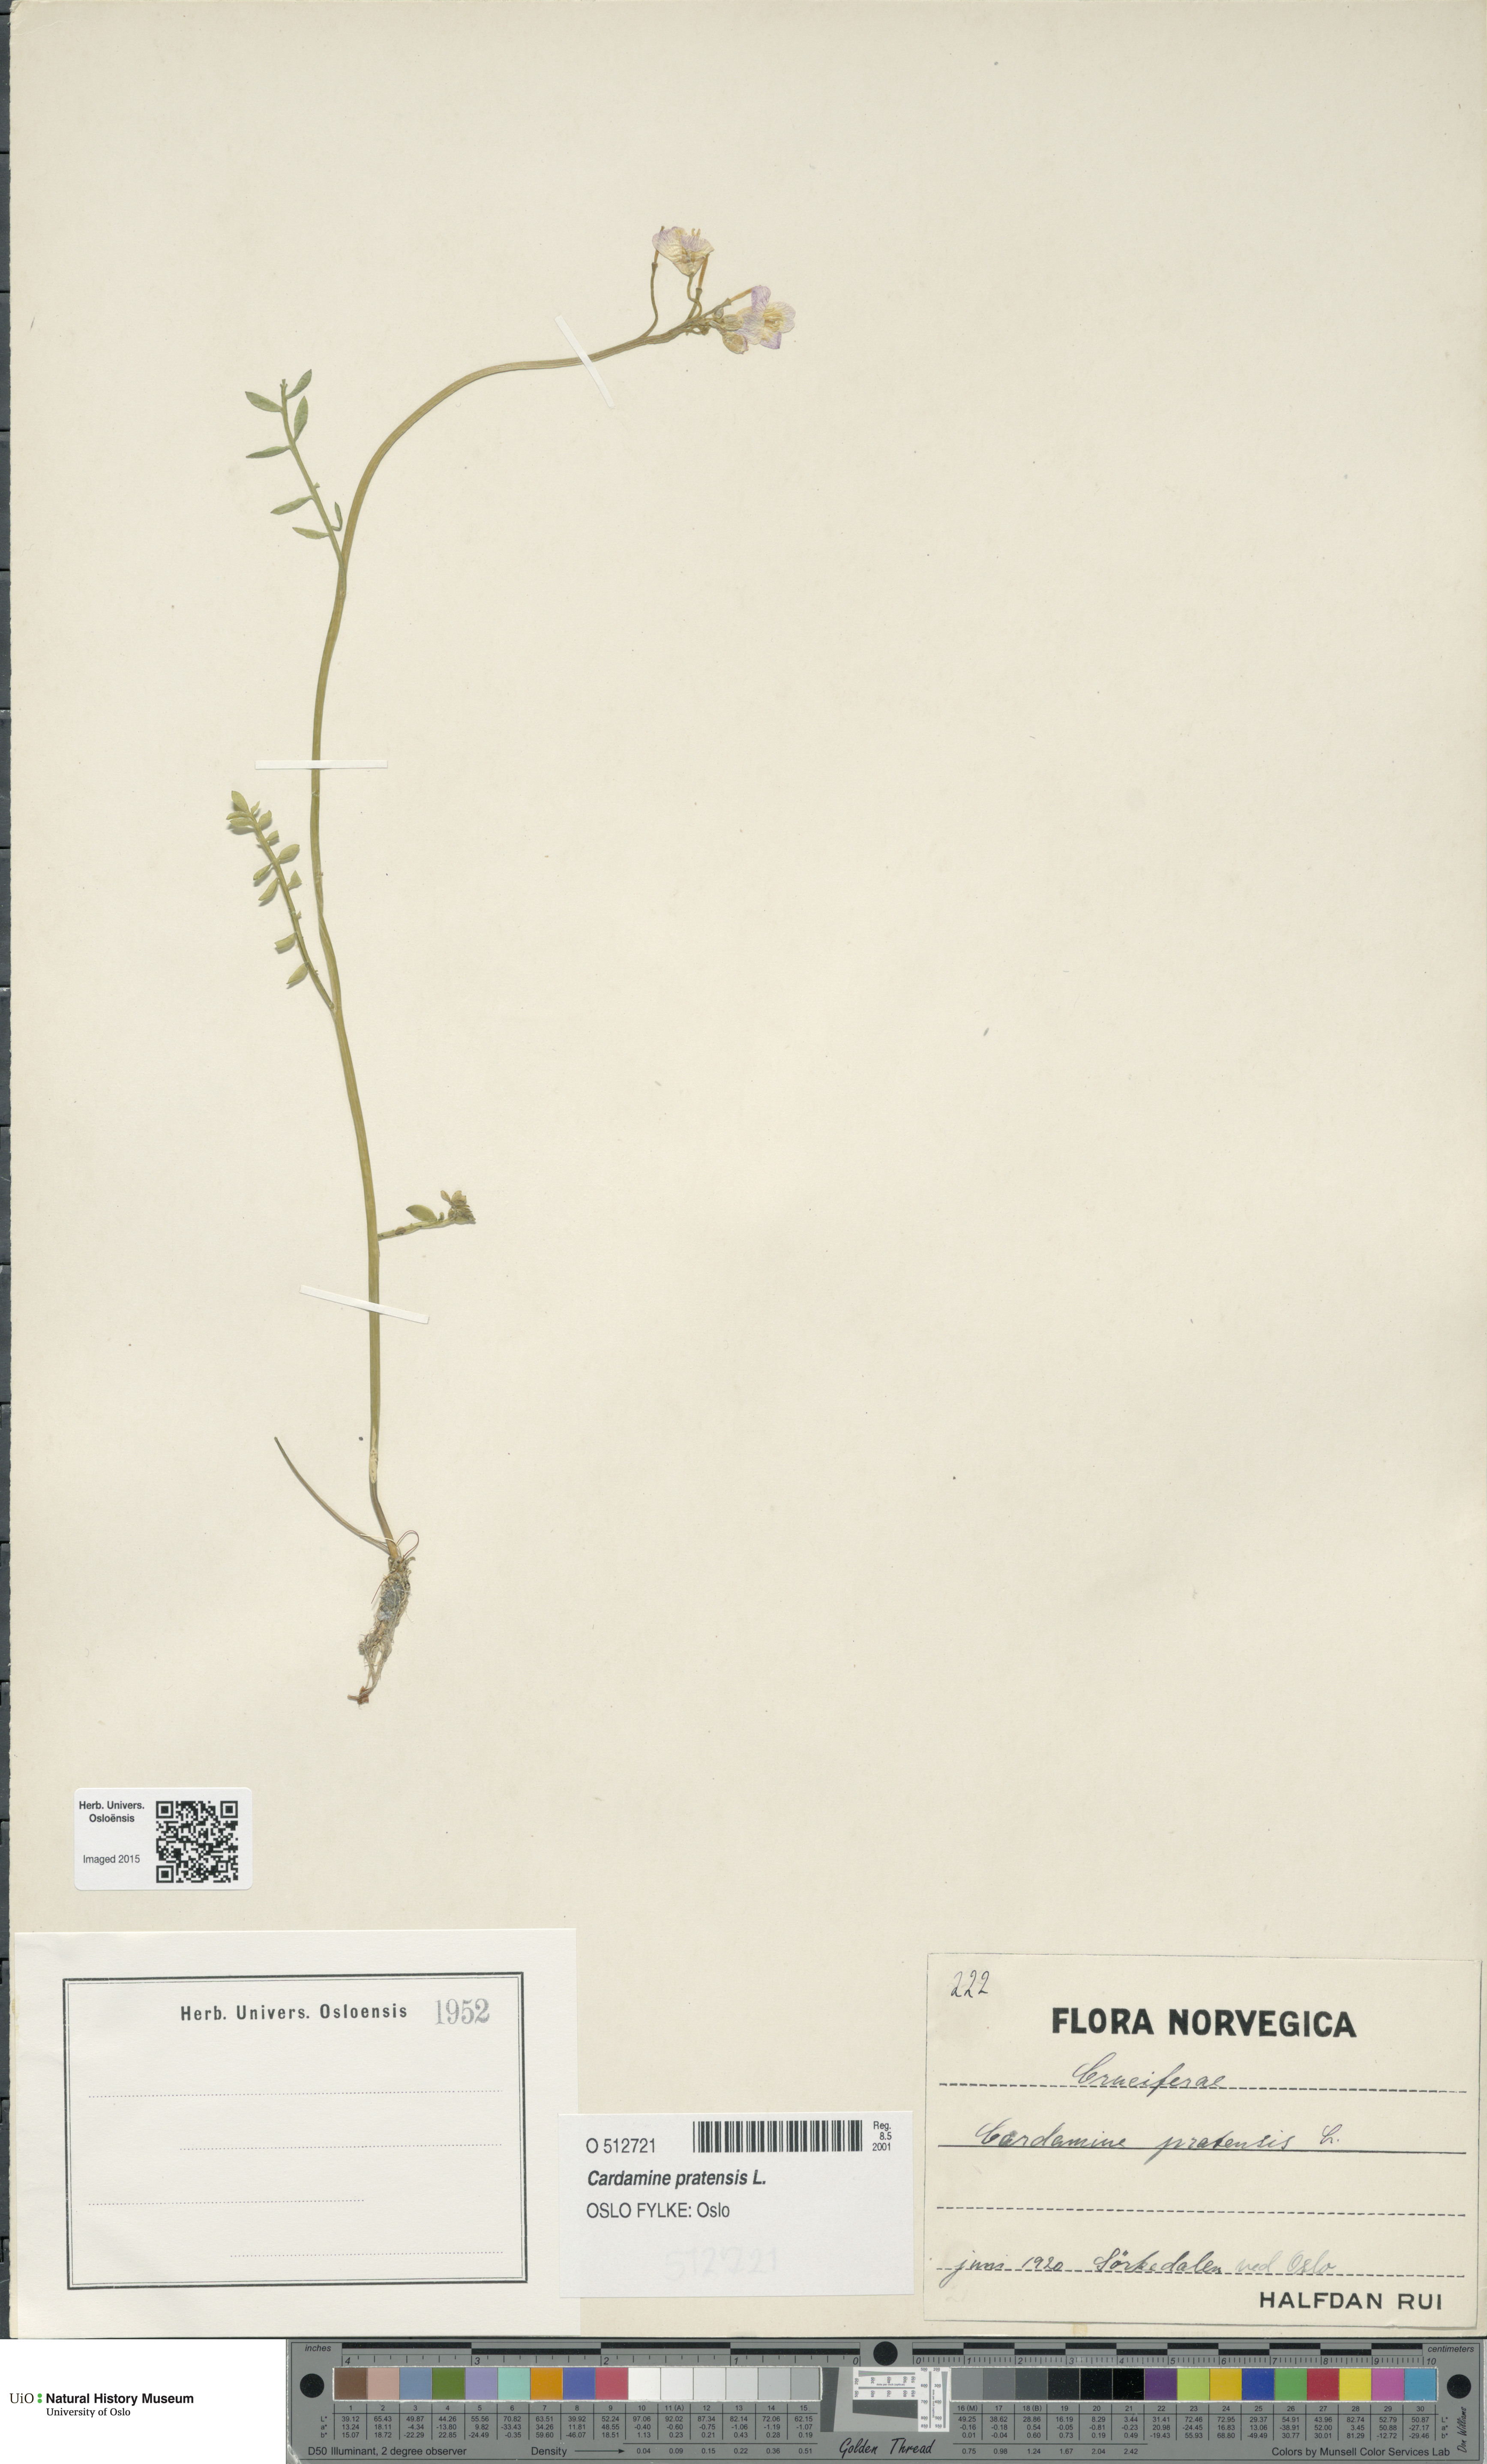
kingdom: Plantae
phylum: Tracheophyta
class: Magnoliopsida
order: Brassicales
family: Brassicaceae
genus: Cardamine
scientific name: Cardamine pratensis
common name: Cuckoo flower
